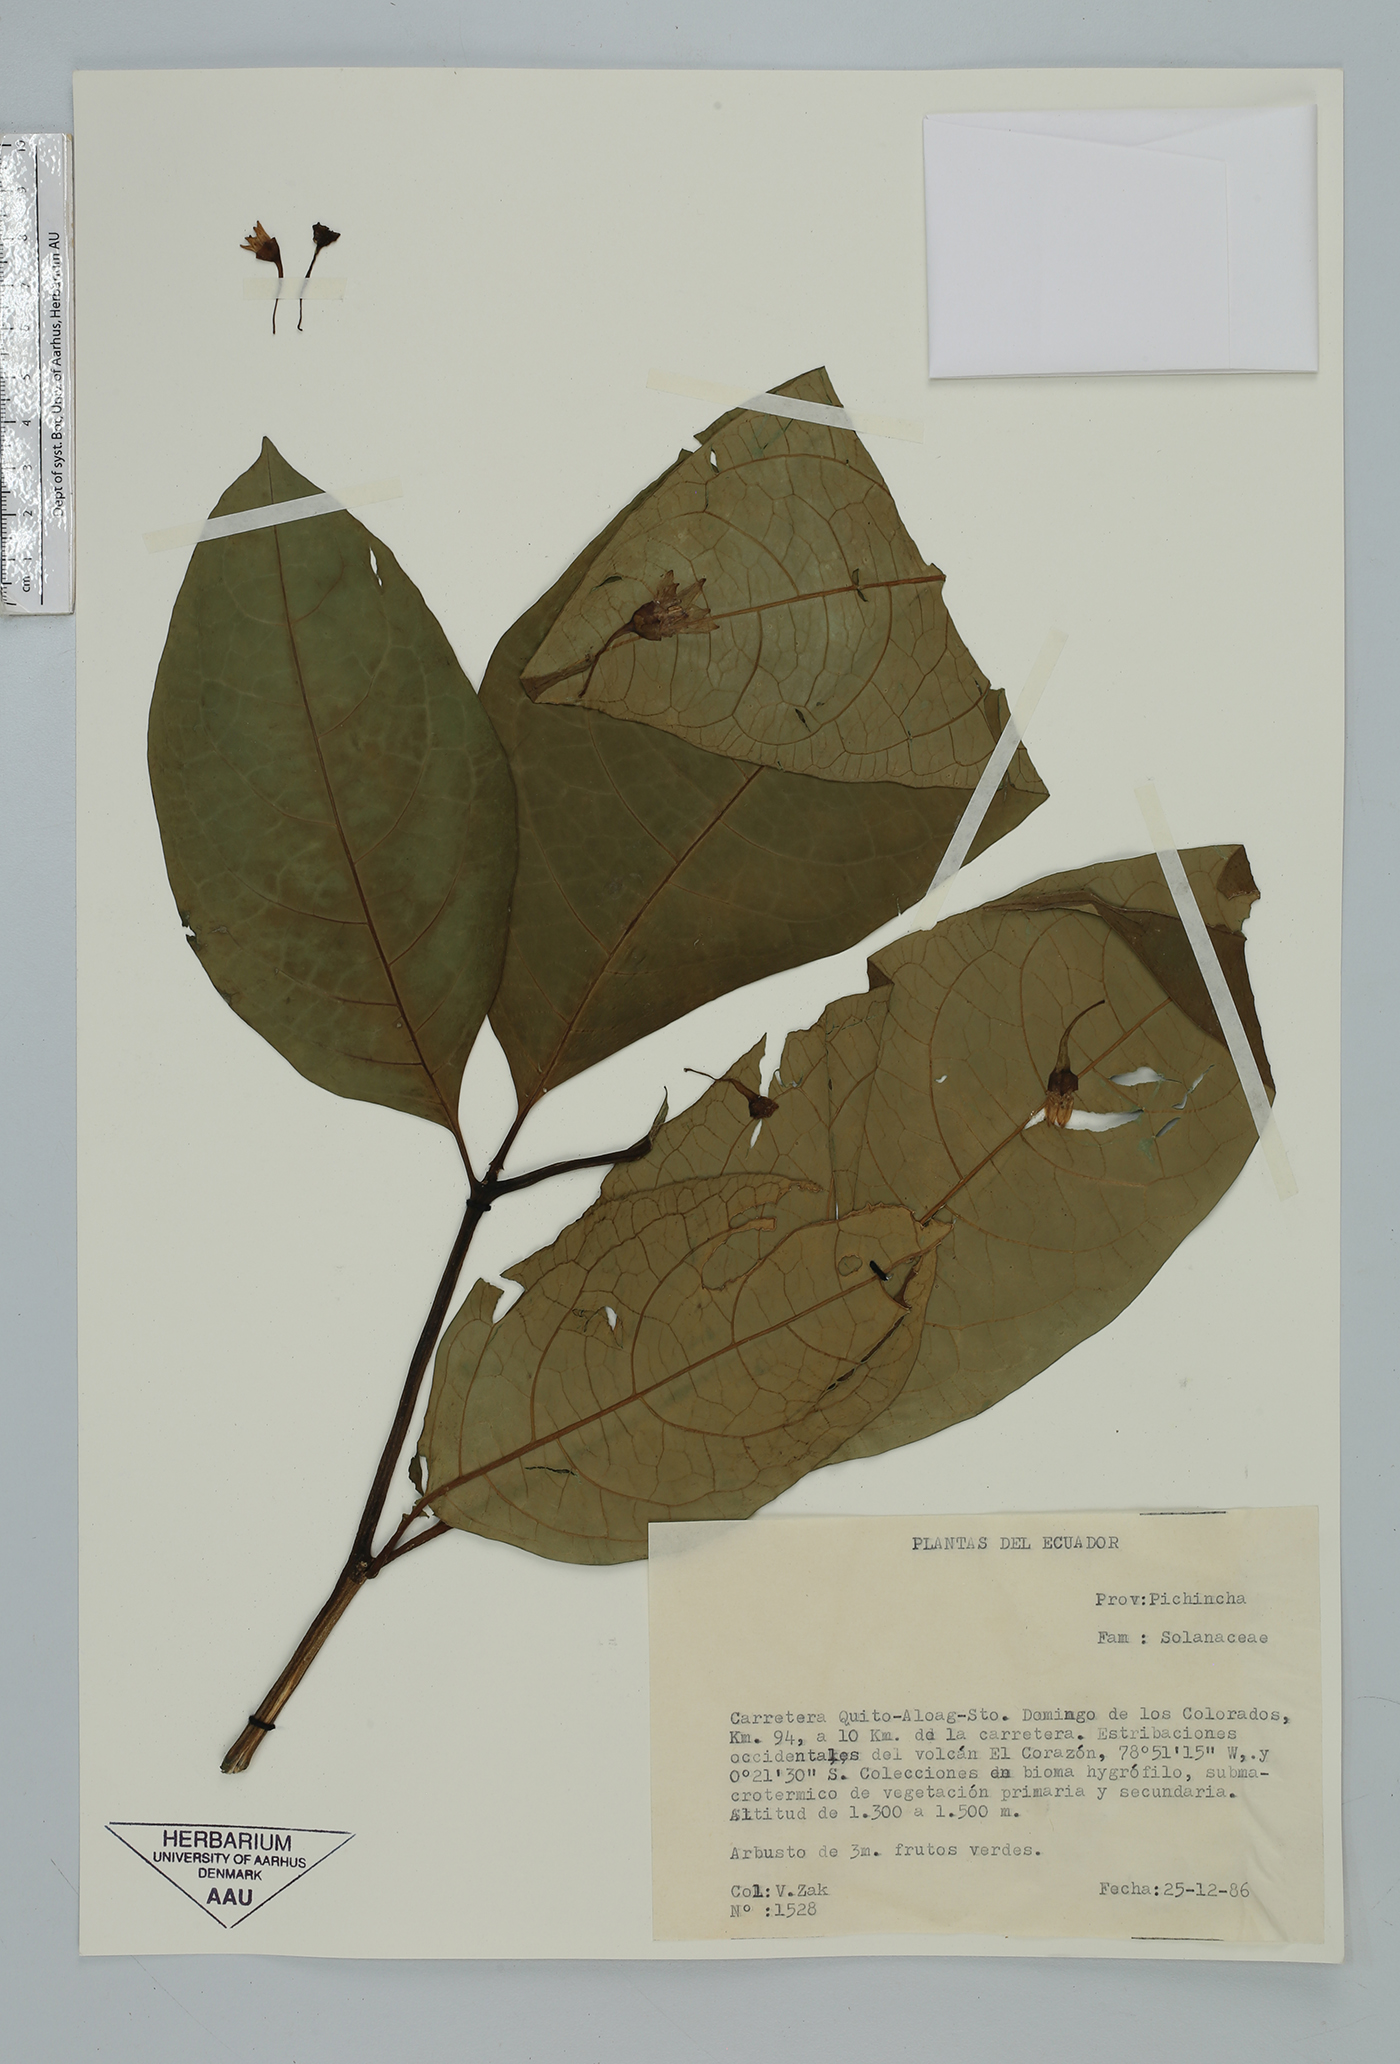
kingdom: Plantae
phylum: Tracheophyta
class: Magnoliopsida
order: Solanales
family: Solanaceae
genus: Cuatresia
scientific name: Cuatresia
